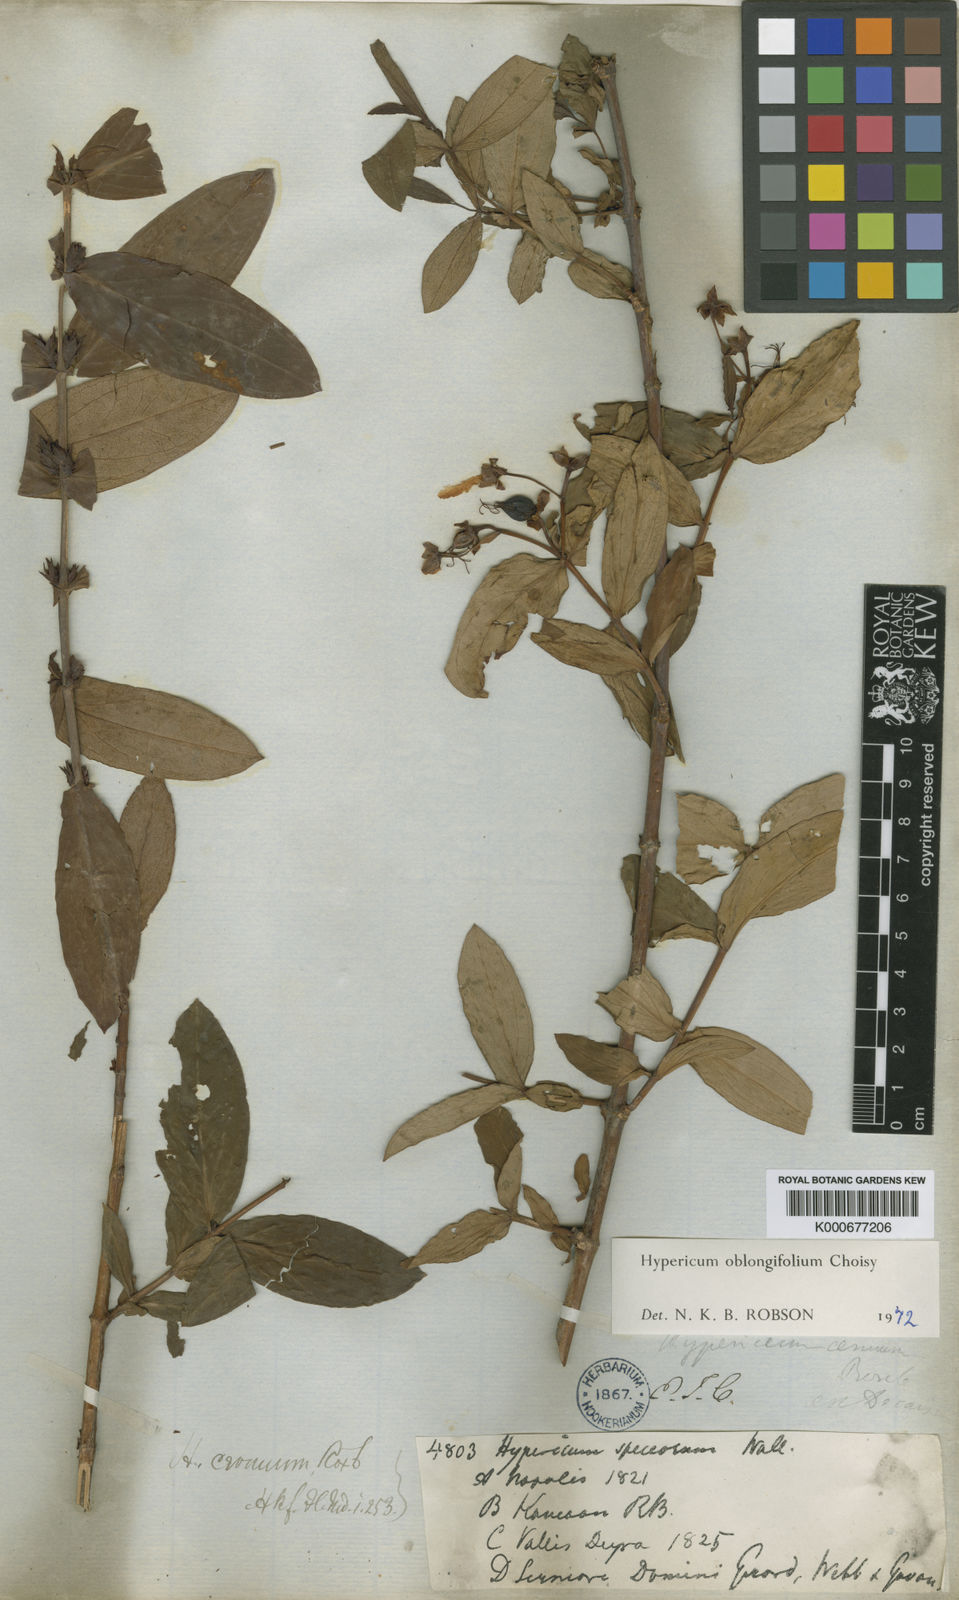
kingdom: Plantae
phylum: Tracheophyta
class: Magnoliopsida
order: Malpighiales
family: Hypericaceae
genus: Hypericum
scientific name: Hypericum oblongifolium
